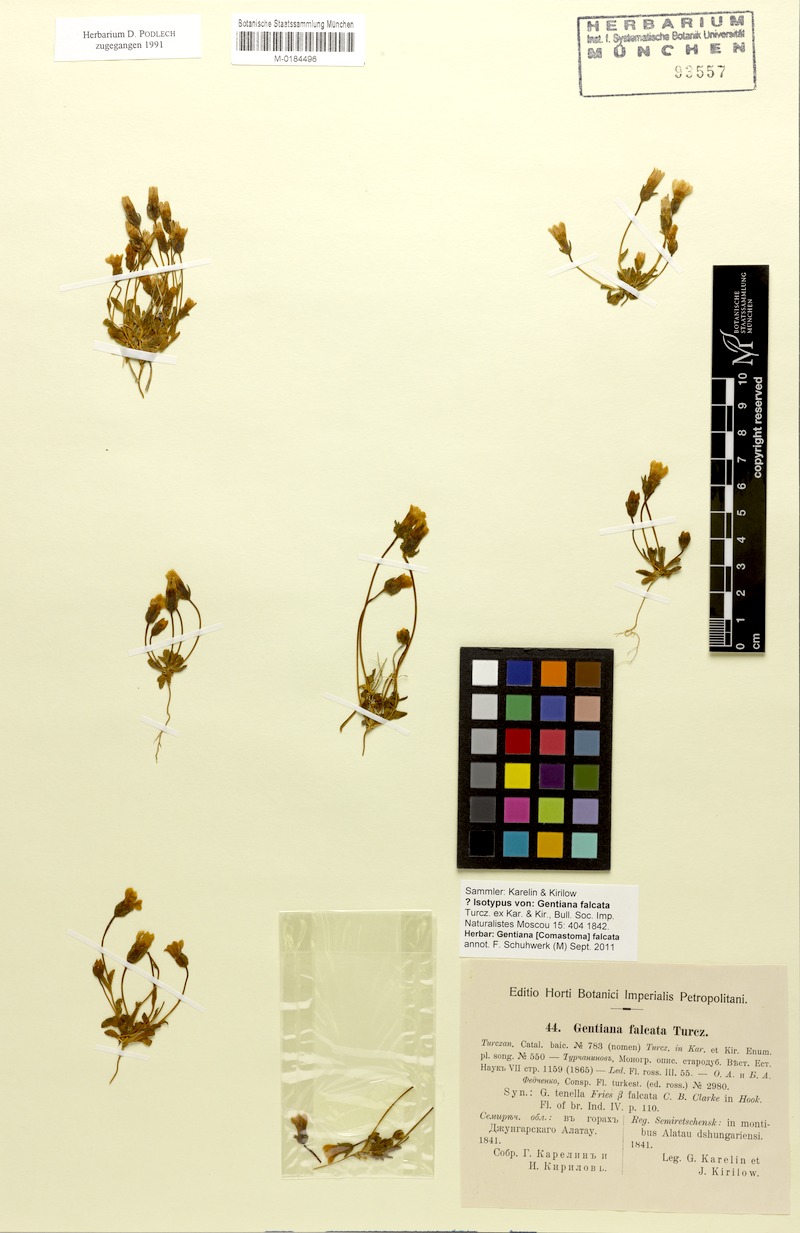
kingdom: Plantae
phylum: Tracheophyta
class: Magnoliopsida
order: Gentianales
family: Gentianaceae
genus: Comastoma
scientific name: Comastoma falcatum
